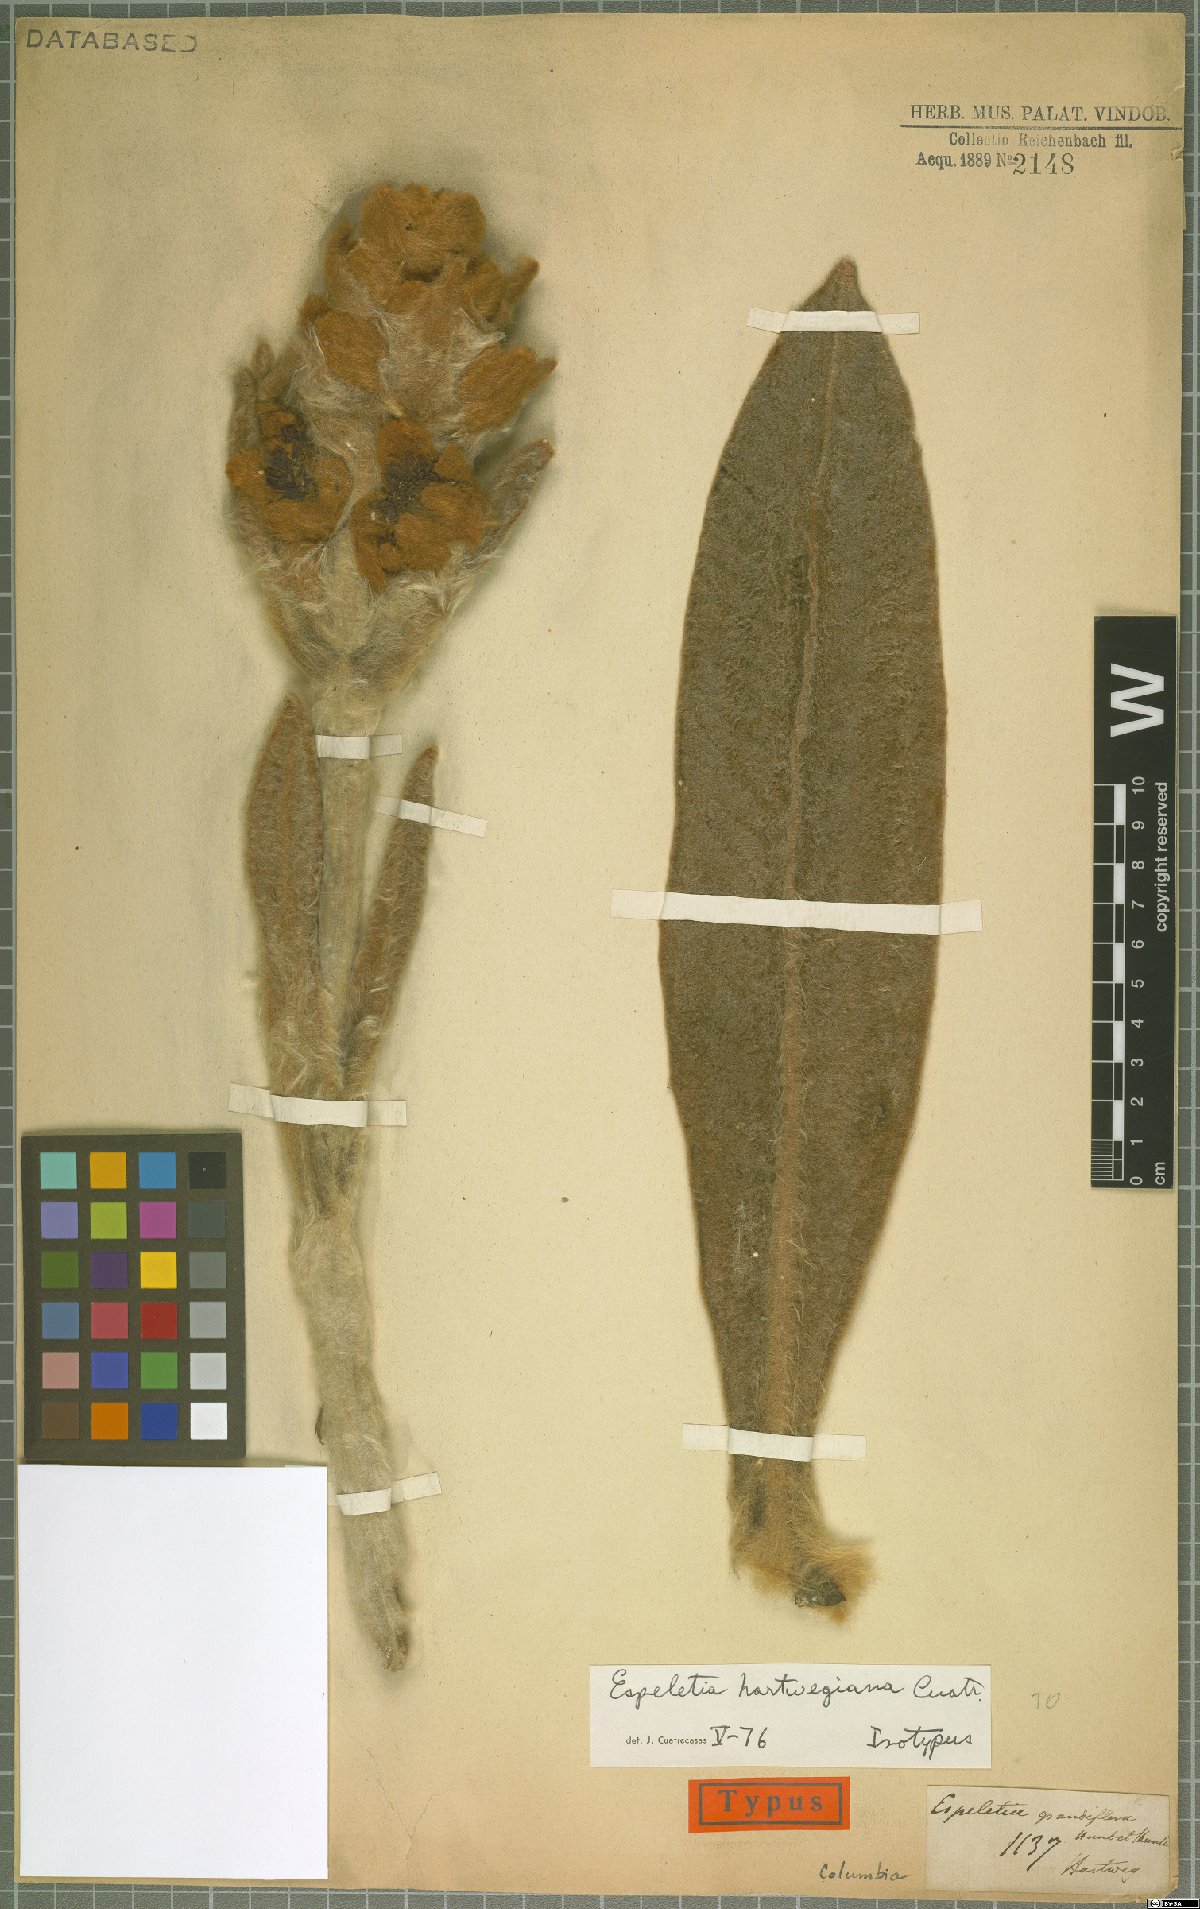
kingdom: Plantae
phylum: Tracheophyta
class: Magnoliopsida
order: Asterales
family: Asteraceae
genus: Espeletia
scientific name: Espeletia hartwegiana
